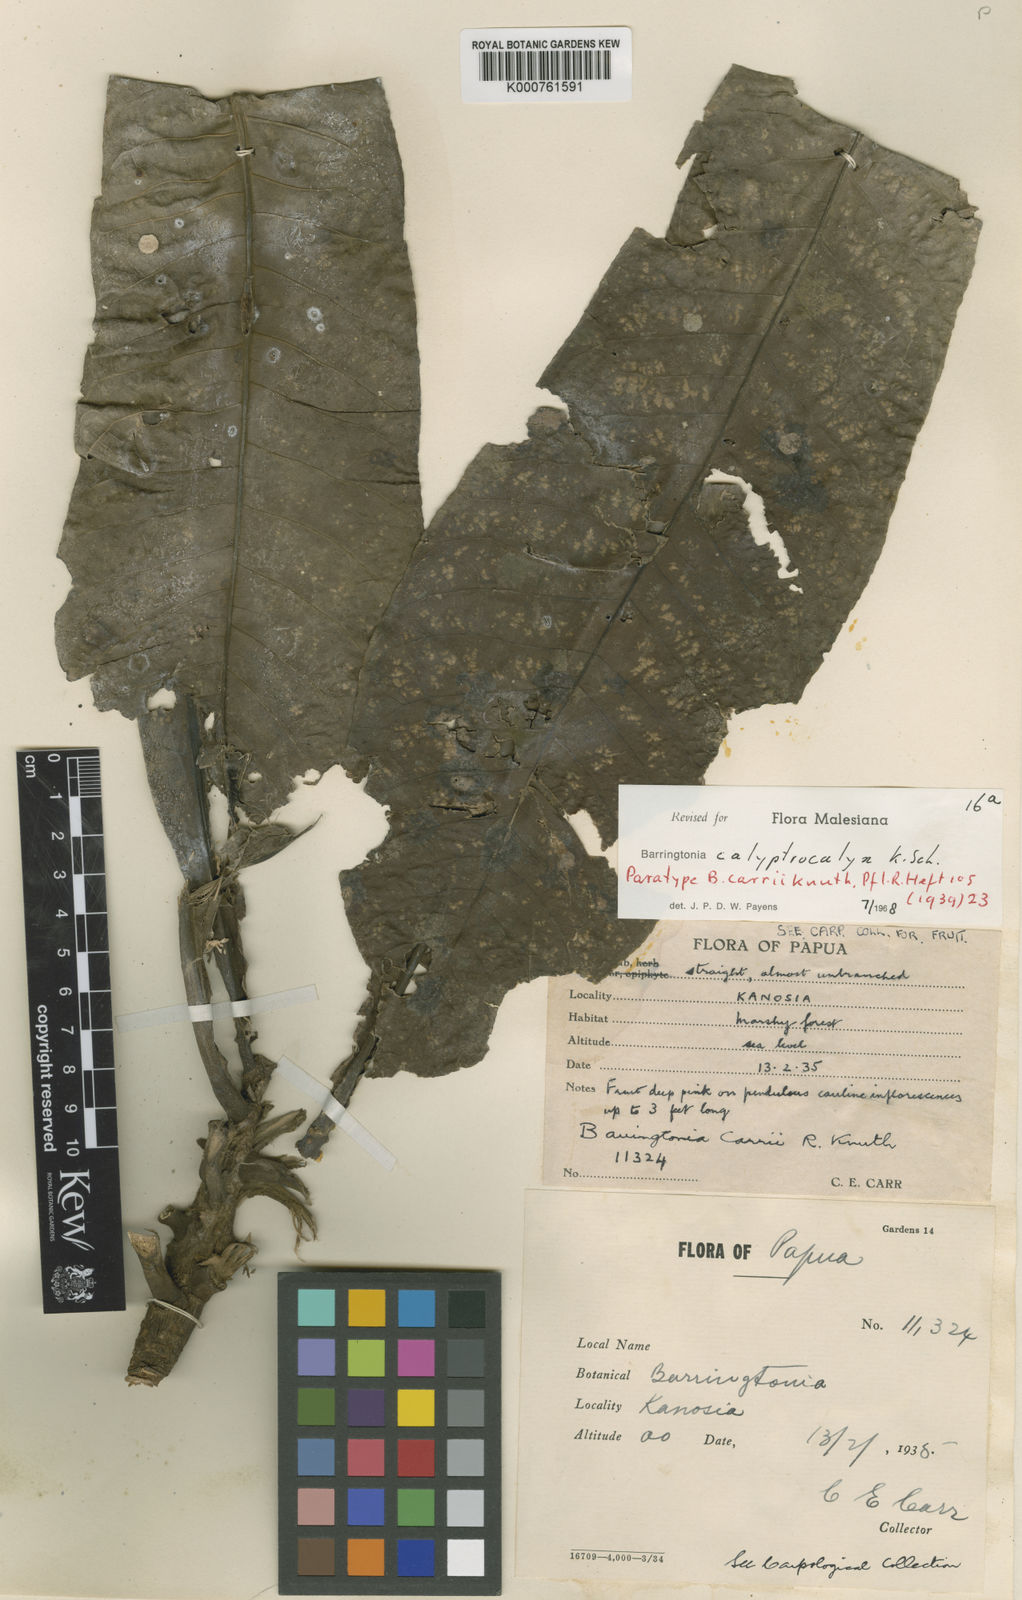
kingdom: Plantae
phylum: Tracheophyta
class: Magnoliopsida
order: Ericales
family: Lecythidaceae
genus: Barringtonia
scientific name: Barringtonia calyptrocalyx
